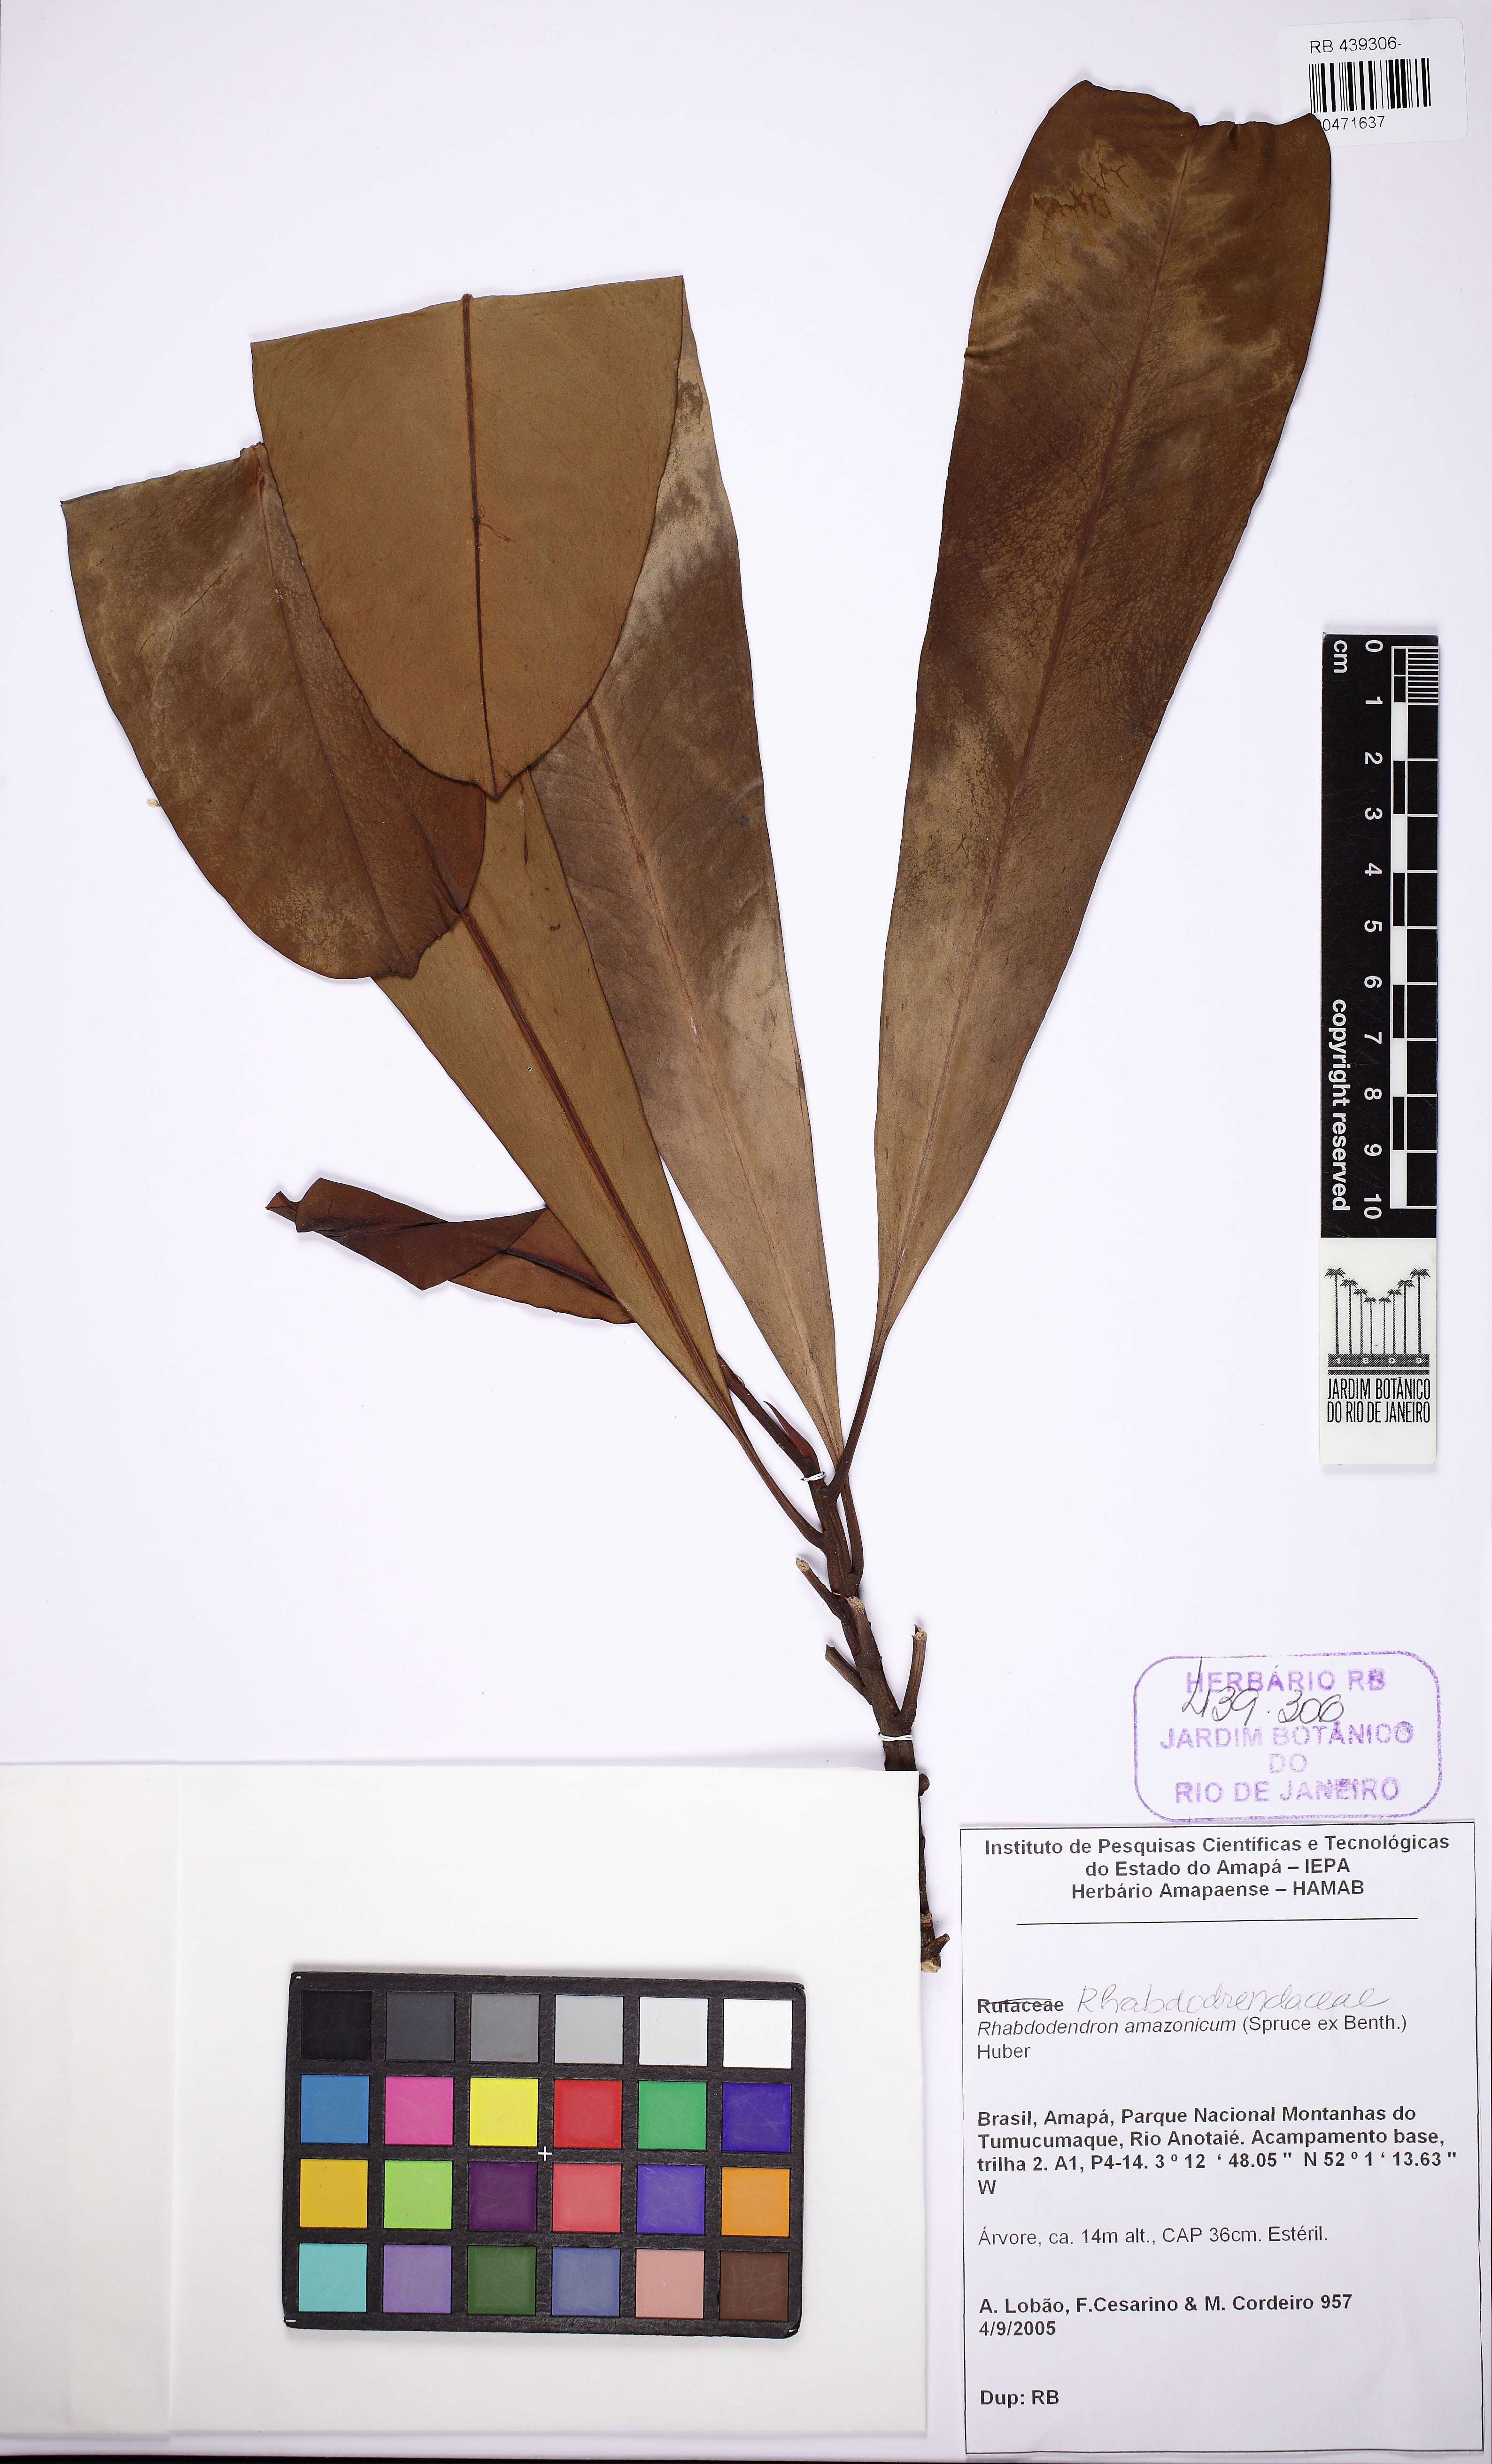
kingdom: Plantae
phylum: Tracheophyta
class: Magnoliopsida
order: Caryophyllales
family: Rhabdodendraceae
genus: Rhabdodendron
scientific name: Rhabdodendron amazonicum
